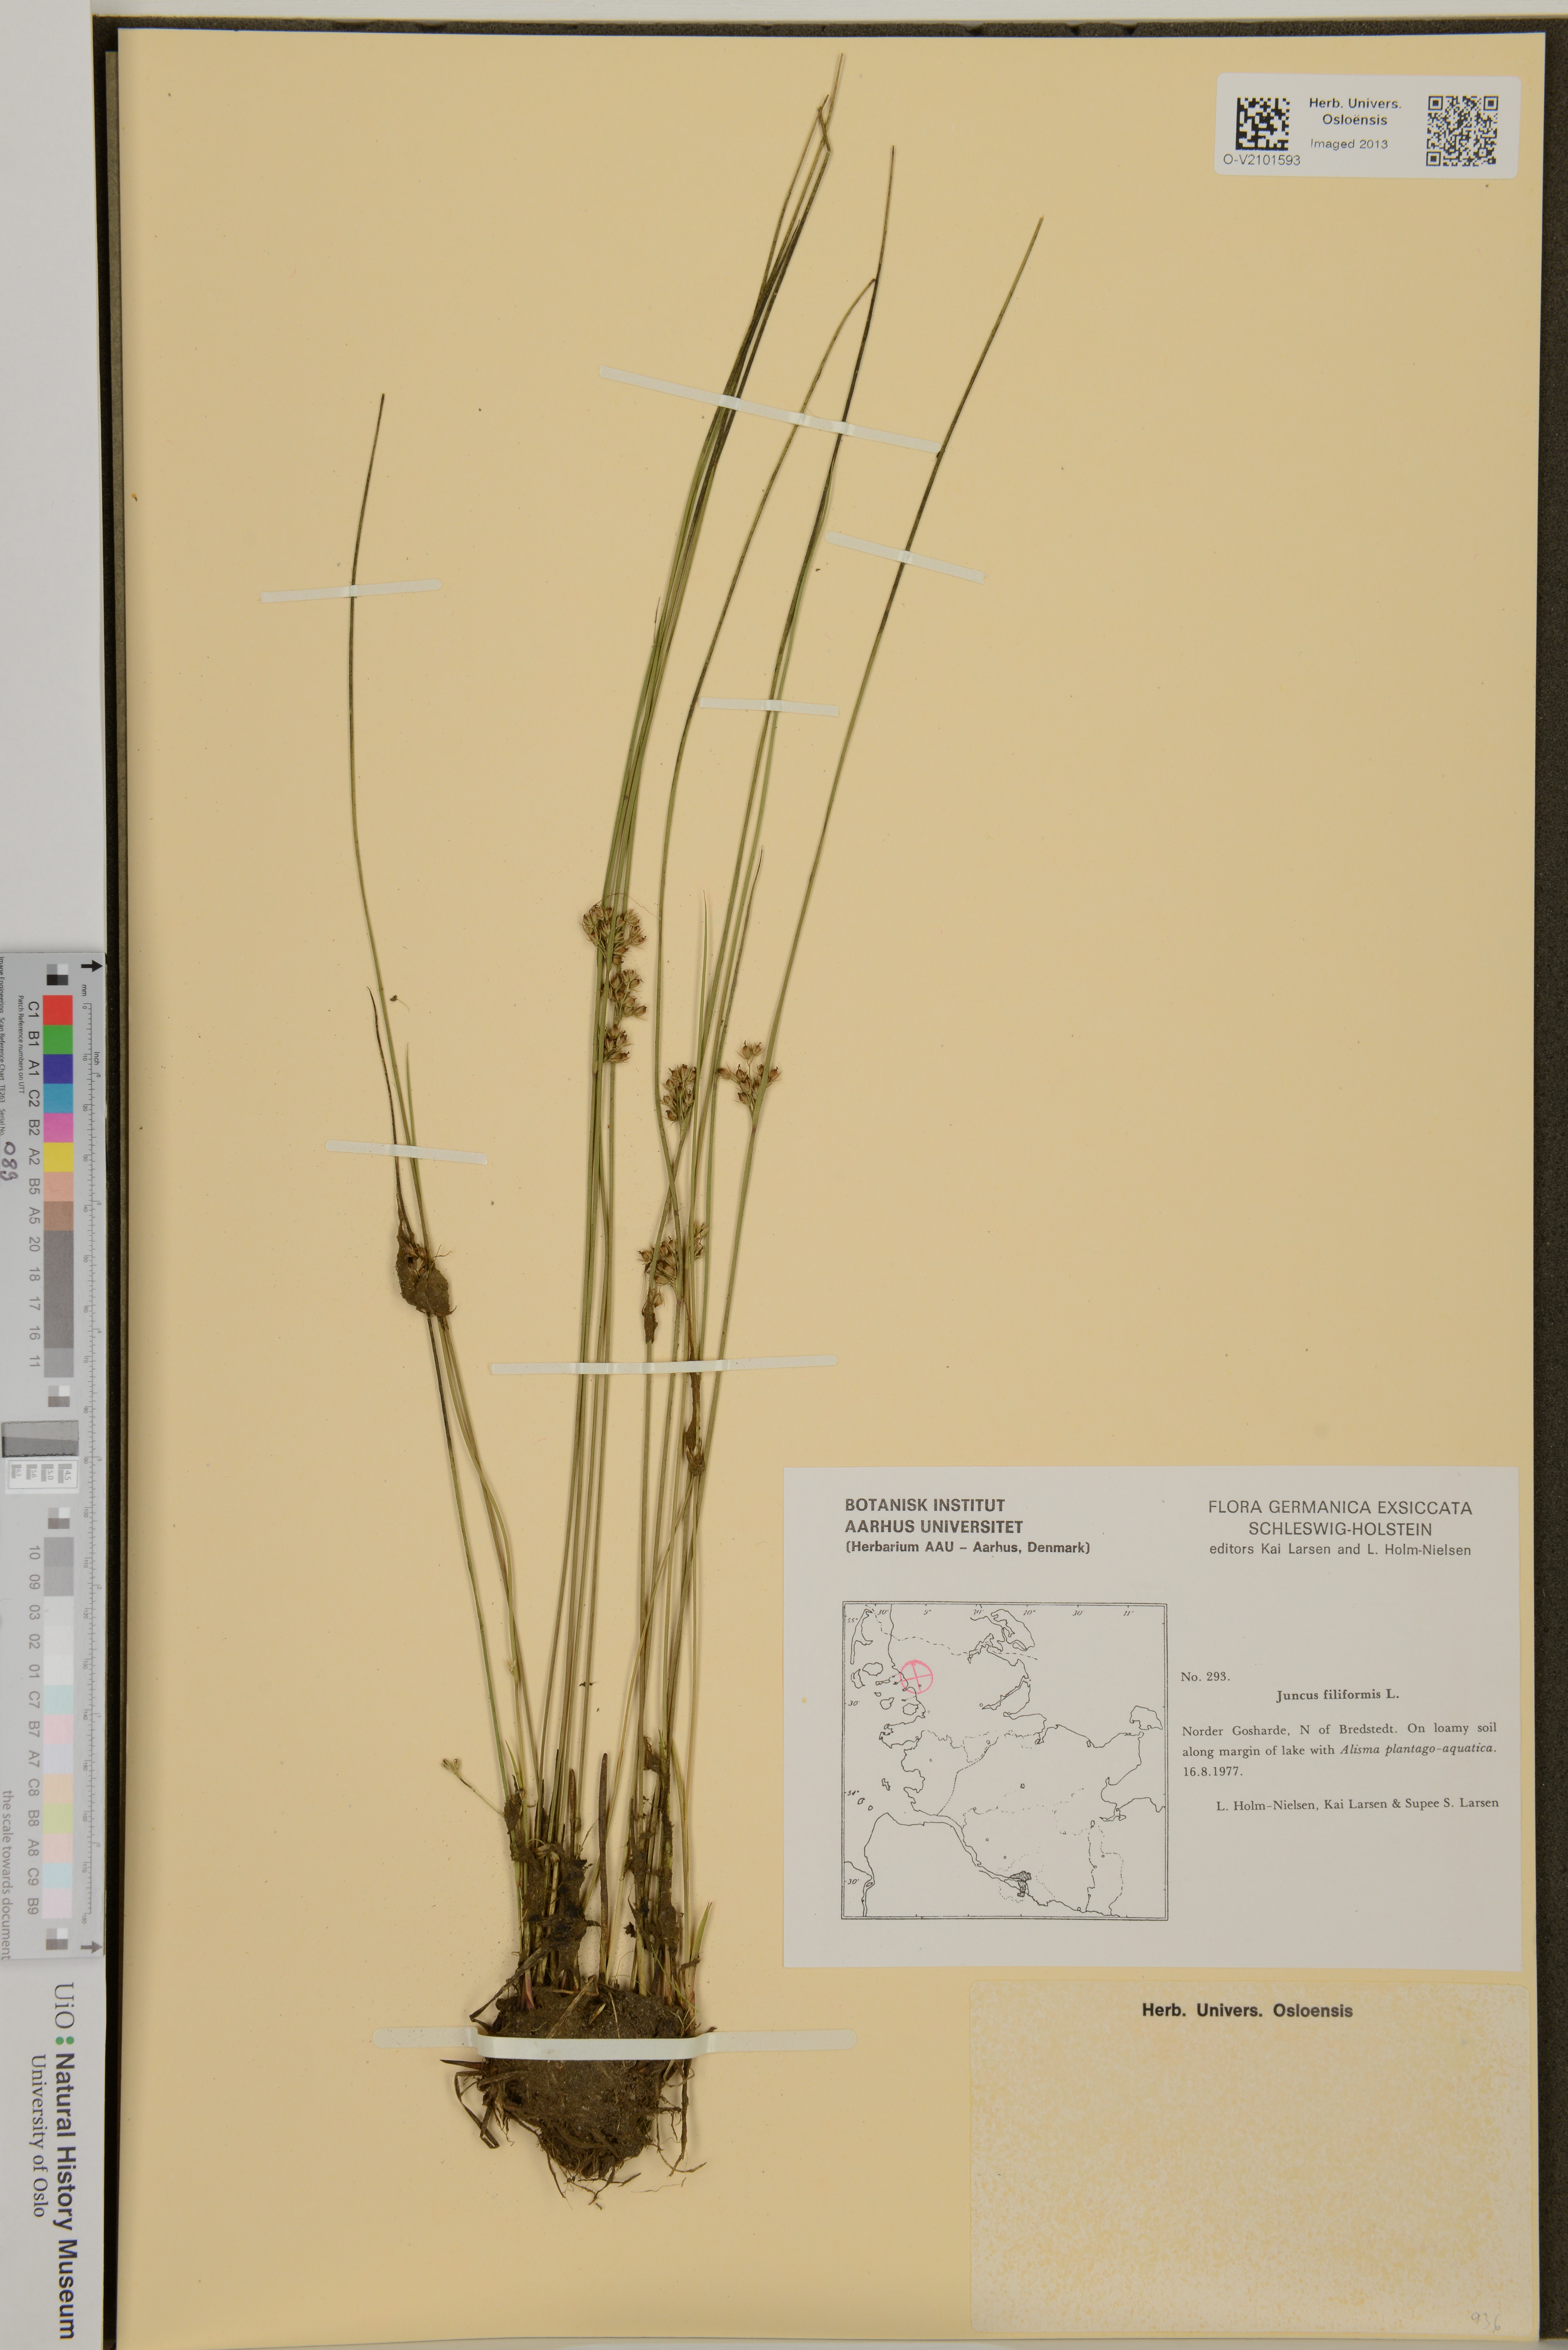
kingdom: Plantae
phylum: Tracheophyta
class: Liliopsida
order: Poales
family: Juncaceae
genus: Juncus
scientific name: Juncus filiformis
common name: Thread rush
